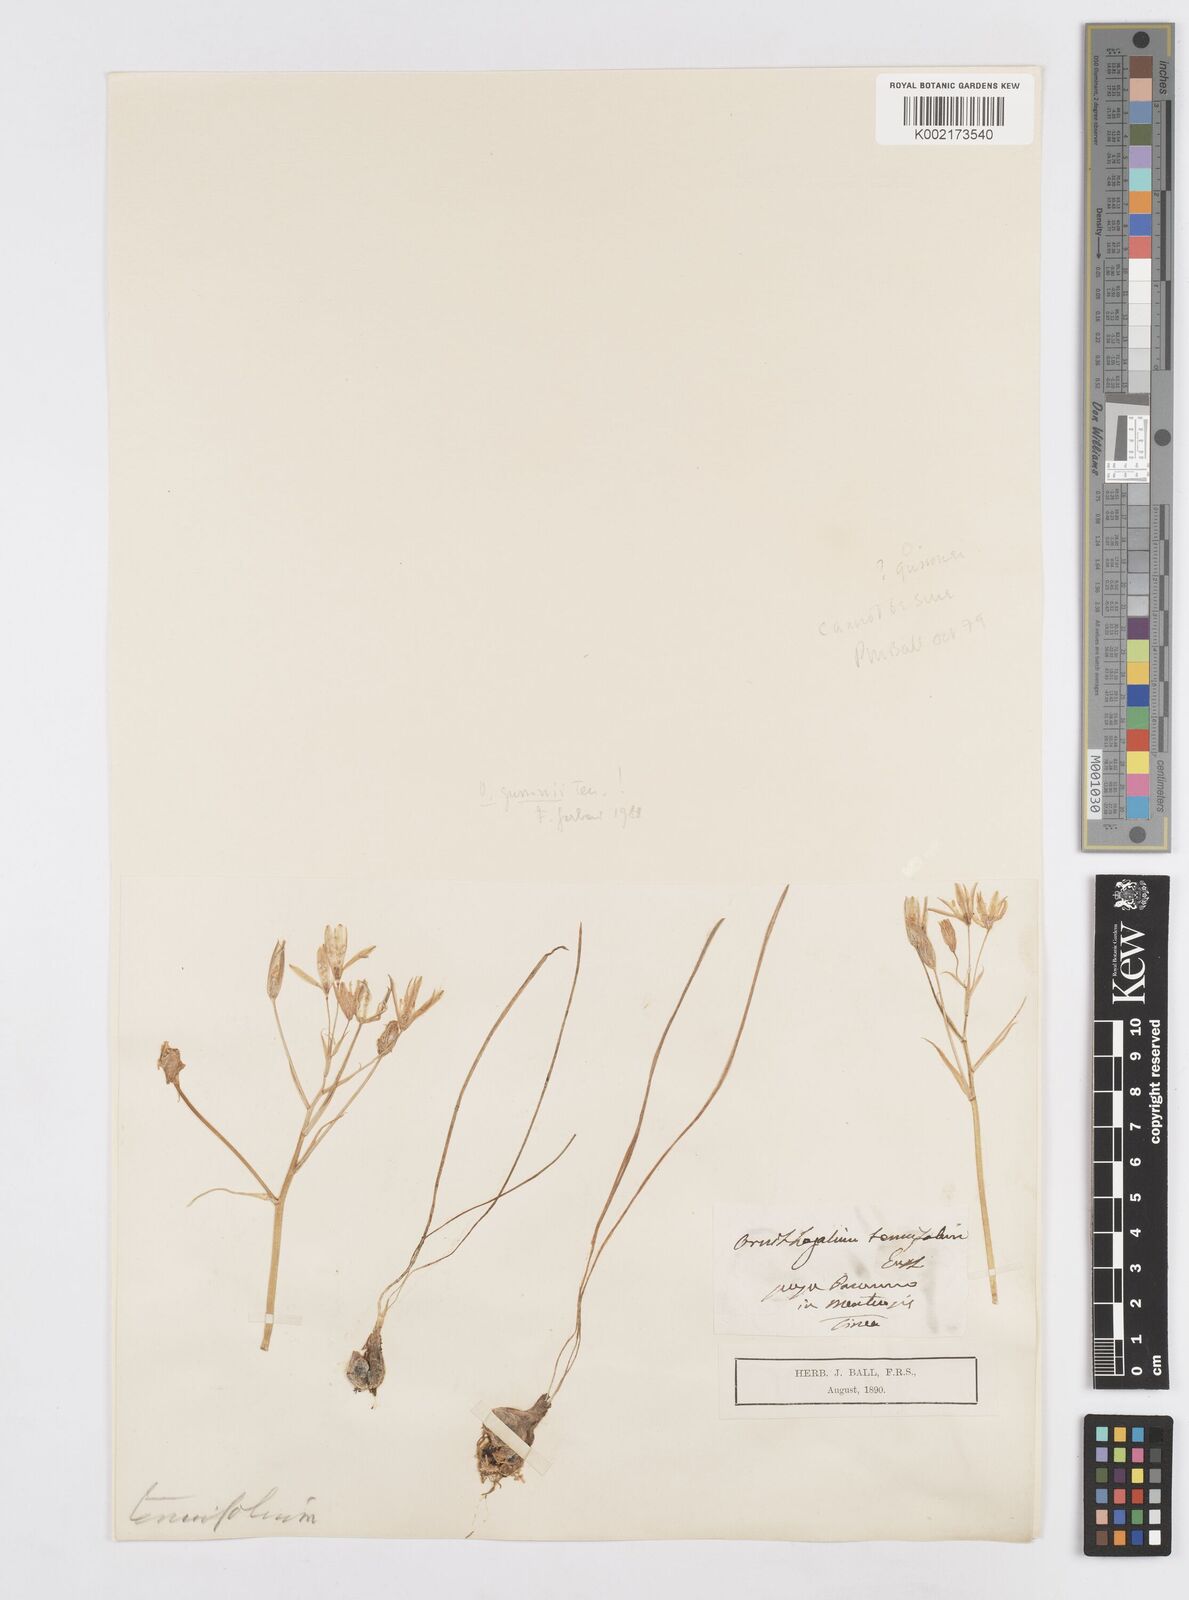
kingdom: Plantae
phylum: Tracheophyta
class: Liliopsida
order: Asparagales
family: Asparagaceae
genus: Ornithogalum
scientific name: Ornithogalum gussonei
